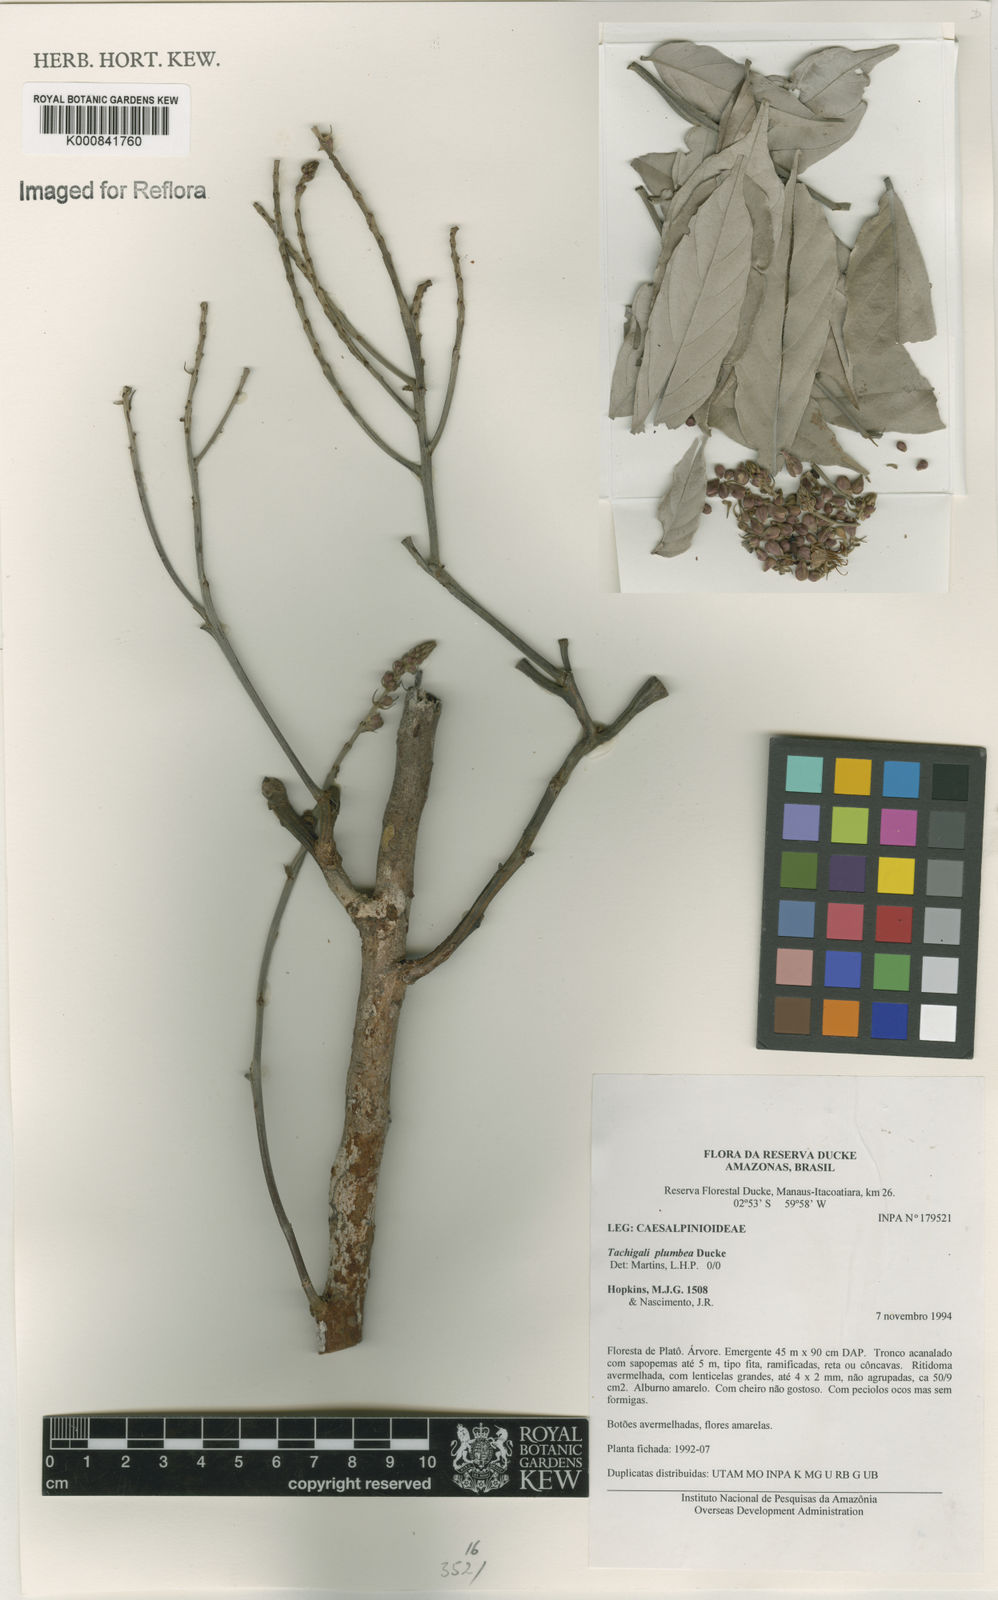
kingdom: Plantae
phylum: Tracheophyta
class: Magnoliopsida
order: Fabales
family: Fabaceae
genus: Tachigali
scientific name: Tachigali plumbea
